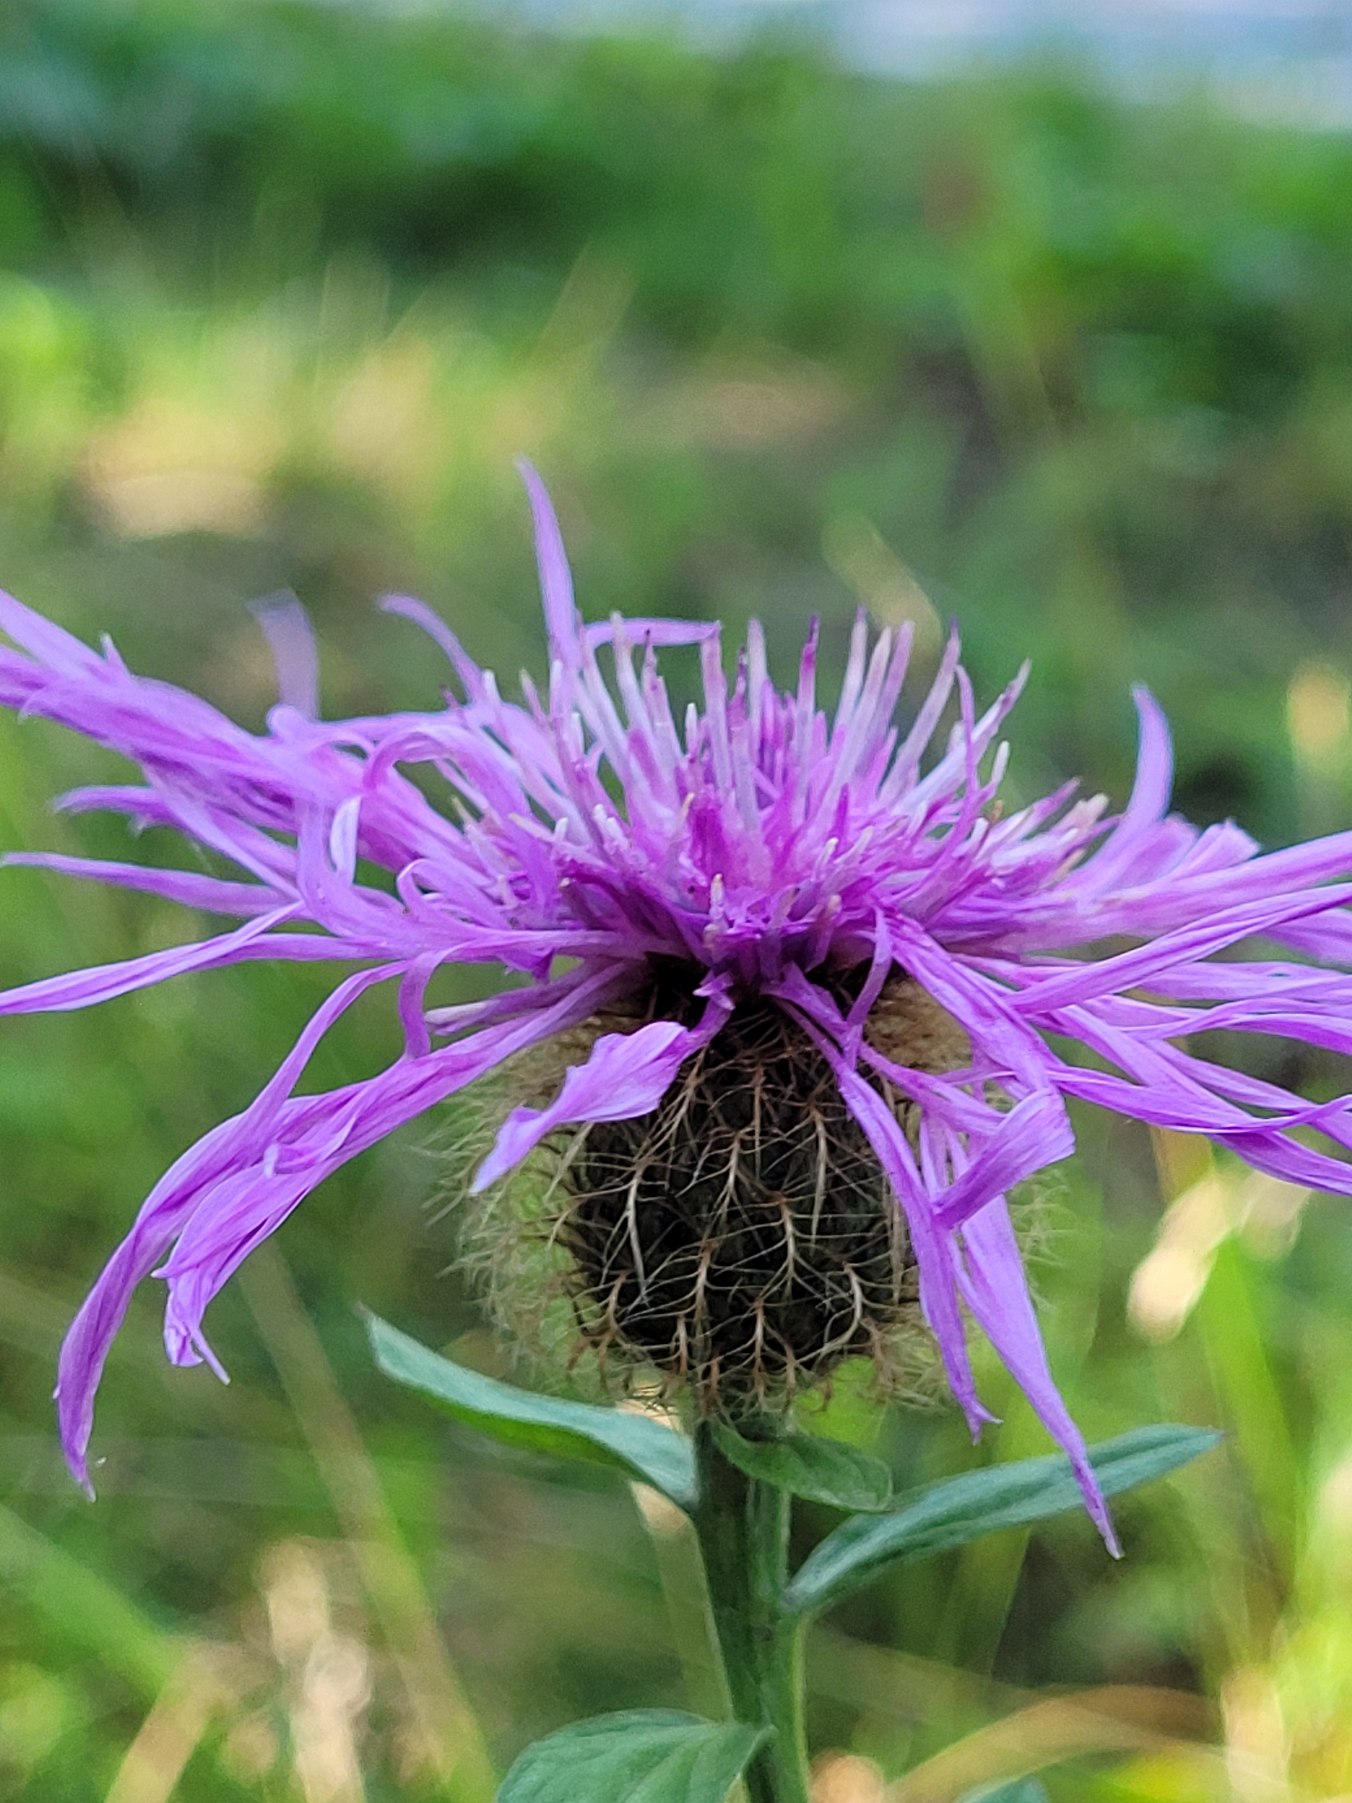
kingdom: Plantae
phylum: Tracheophyta
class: Magnoliopsida
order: Asterales
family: Asteraceae
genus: Centaurea
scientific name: Centaurea pseudophrygia
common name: Fjer-knopurt
